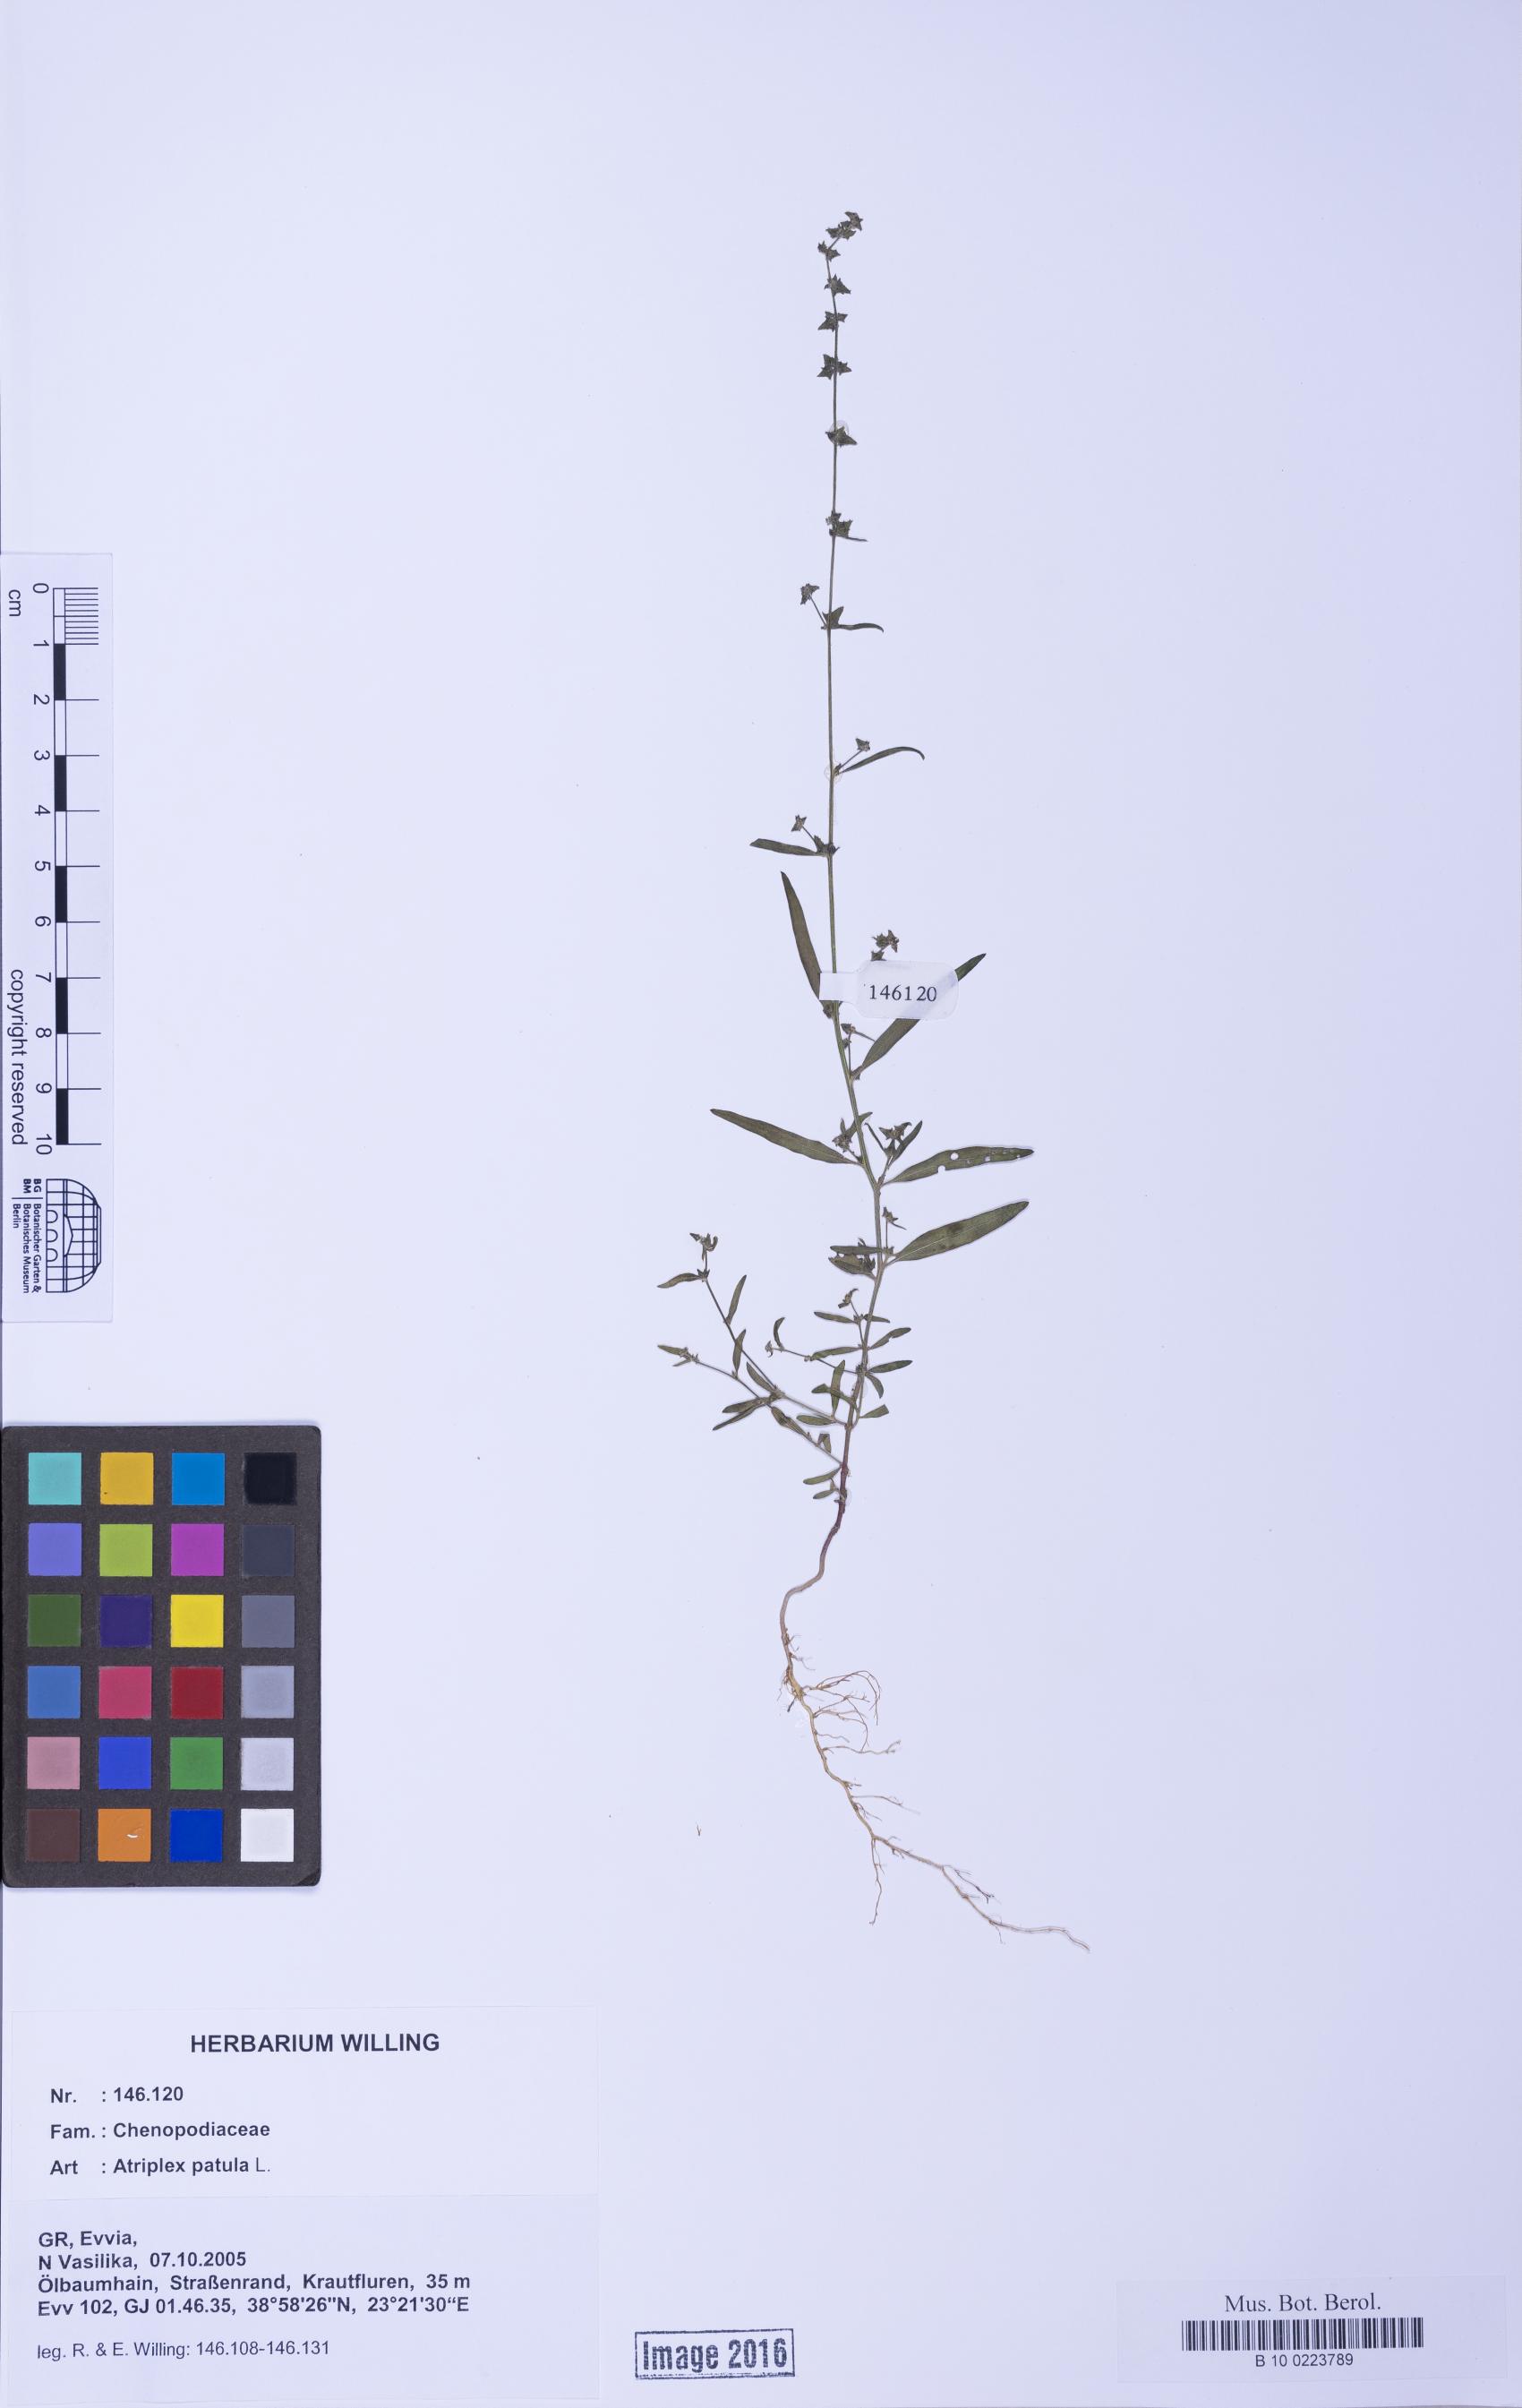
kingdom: Plantae
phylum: Tracheophyta
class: Magnoliopsida
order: Caryophyllales
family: Amaranthaceae
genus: Atriplex
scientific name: Atriplex patula
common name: Common orache
